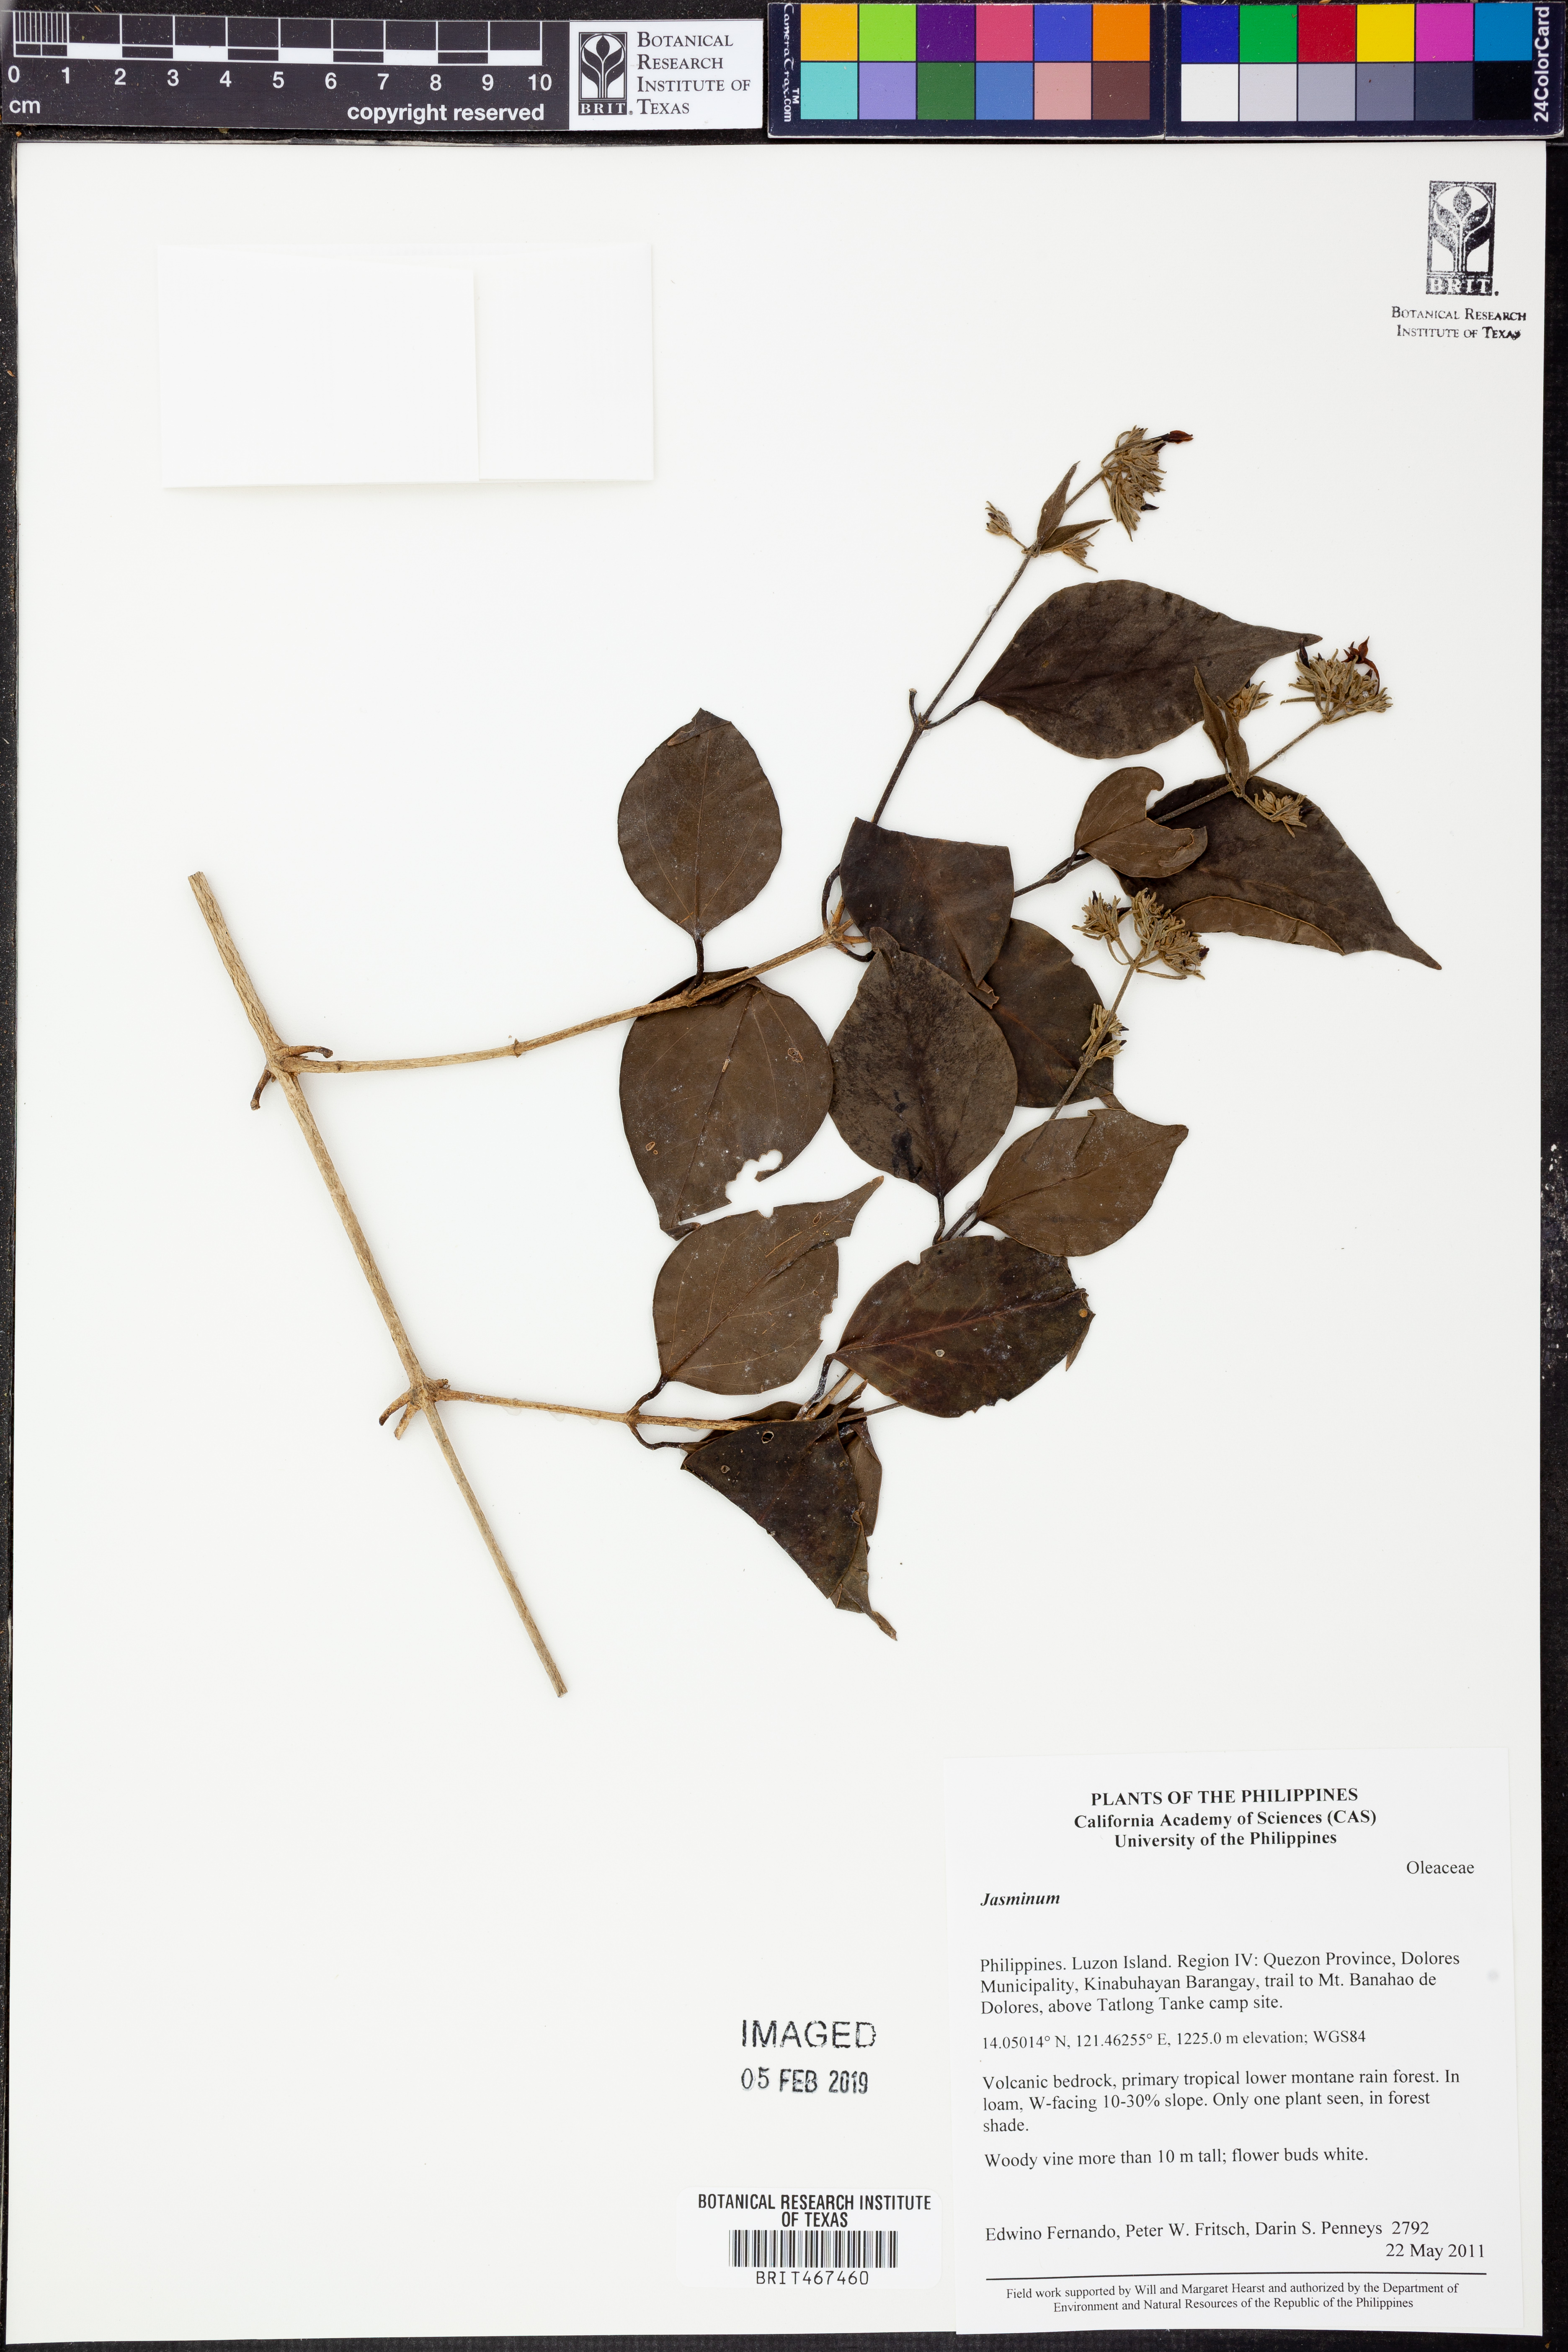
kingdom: Plantae
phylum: Tracheophyta
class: Magnoliopsida
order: Lamiales
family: Oleaceae
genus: Jasminum
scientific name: Jasminum
